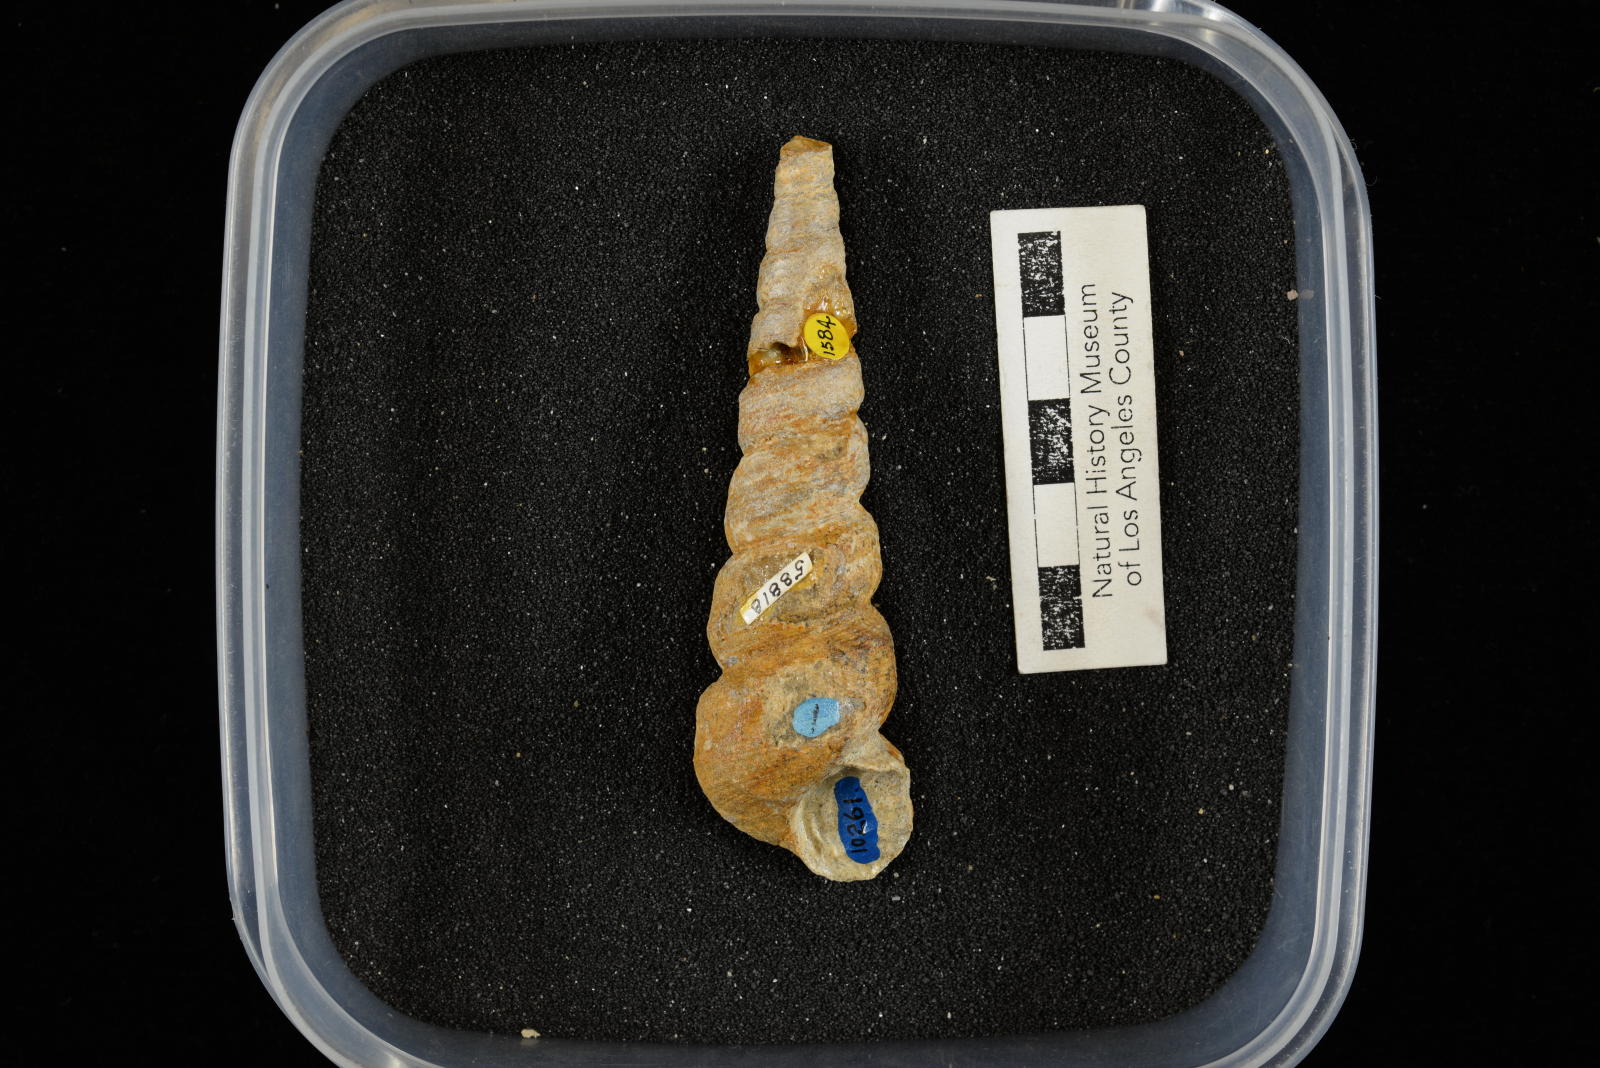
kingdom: Animalia
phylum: Mollusca
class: Gastropoda
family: Turritellidae
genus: Turritella
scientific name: Turritella chaneyi
